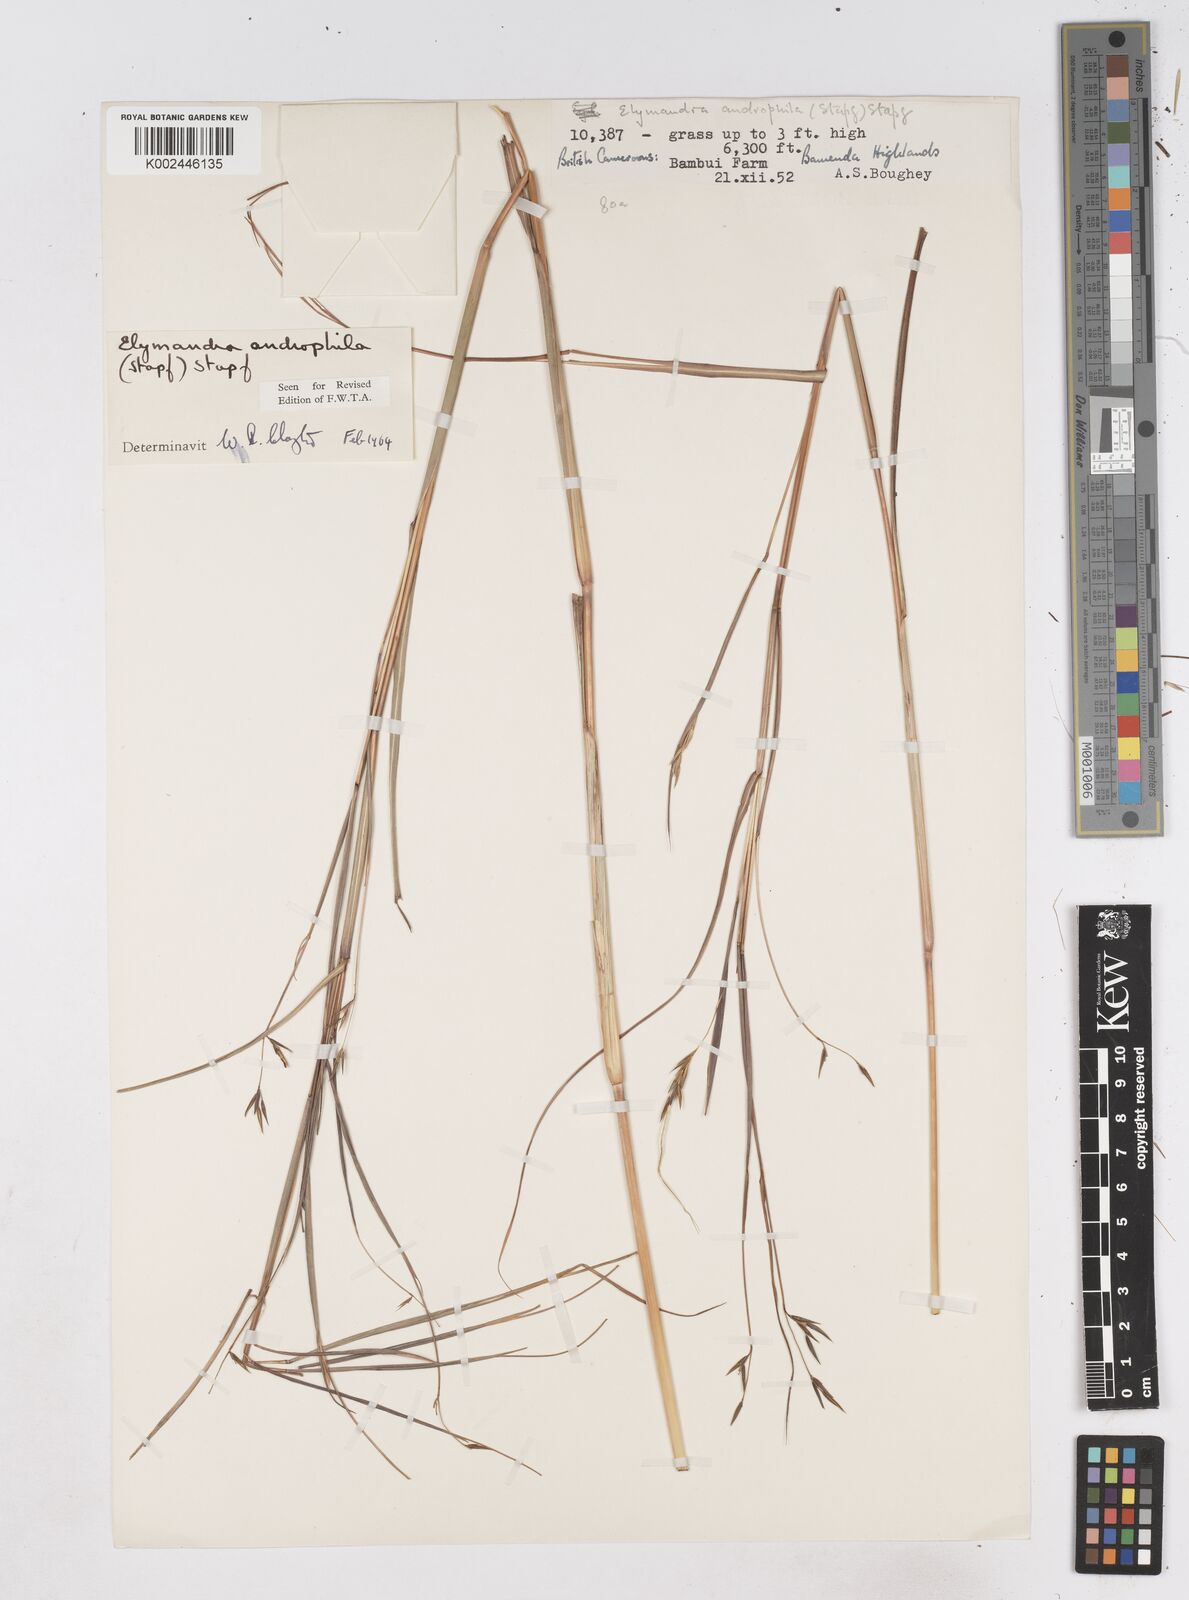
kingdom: Plantae
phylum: Tracheophyta
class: Liliopsida
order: Poales
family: Poaceae
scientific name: Poaceae
